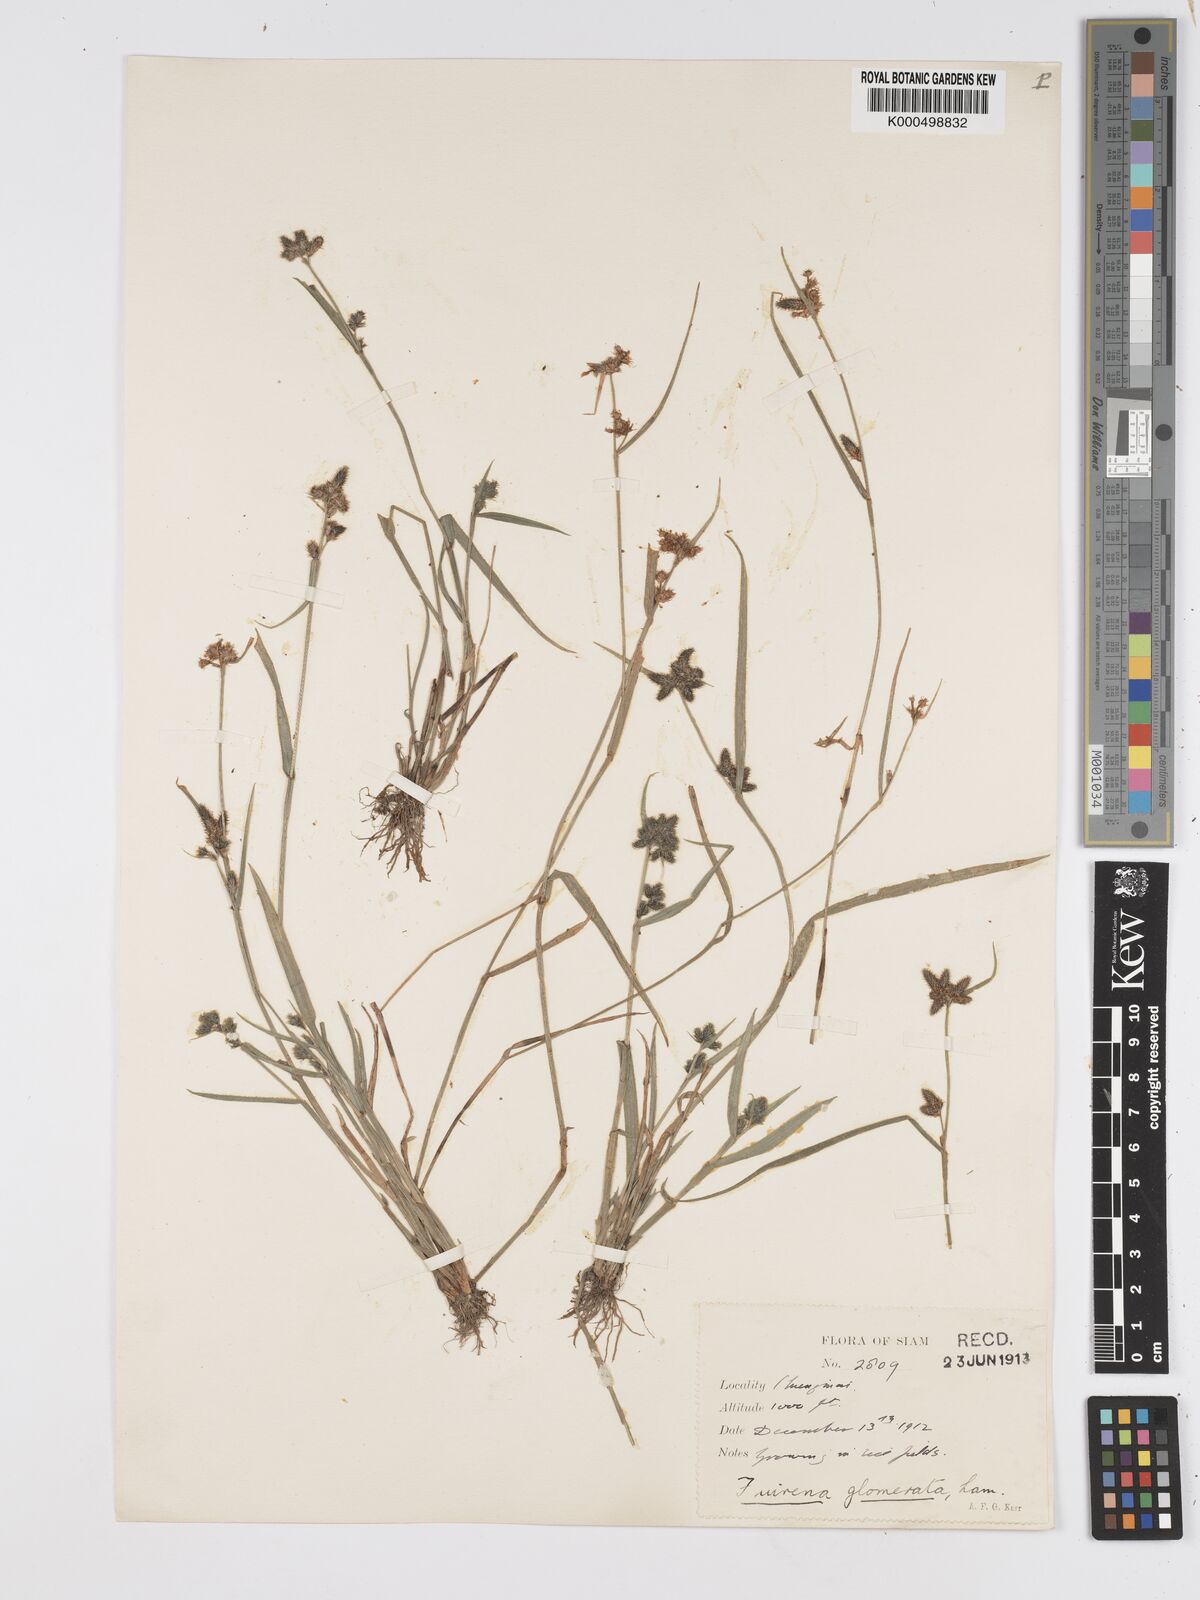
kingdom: Plantae
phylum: Tracheophyta
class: Liliopsida
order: Poales
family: Cyperaceae
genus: Fuirena
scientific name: Fuirena ciliaris
